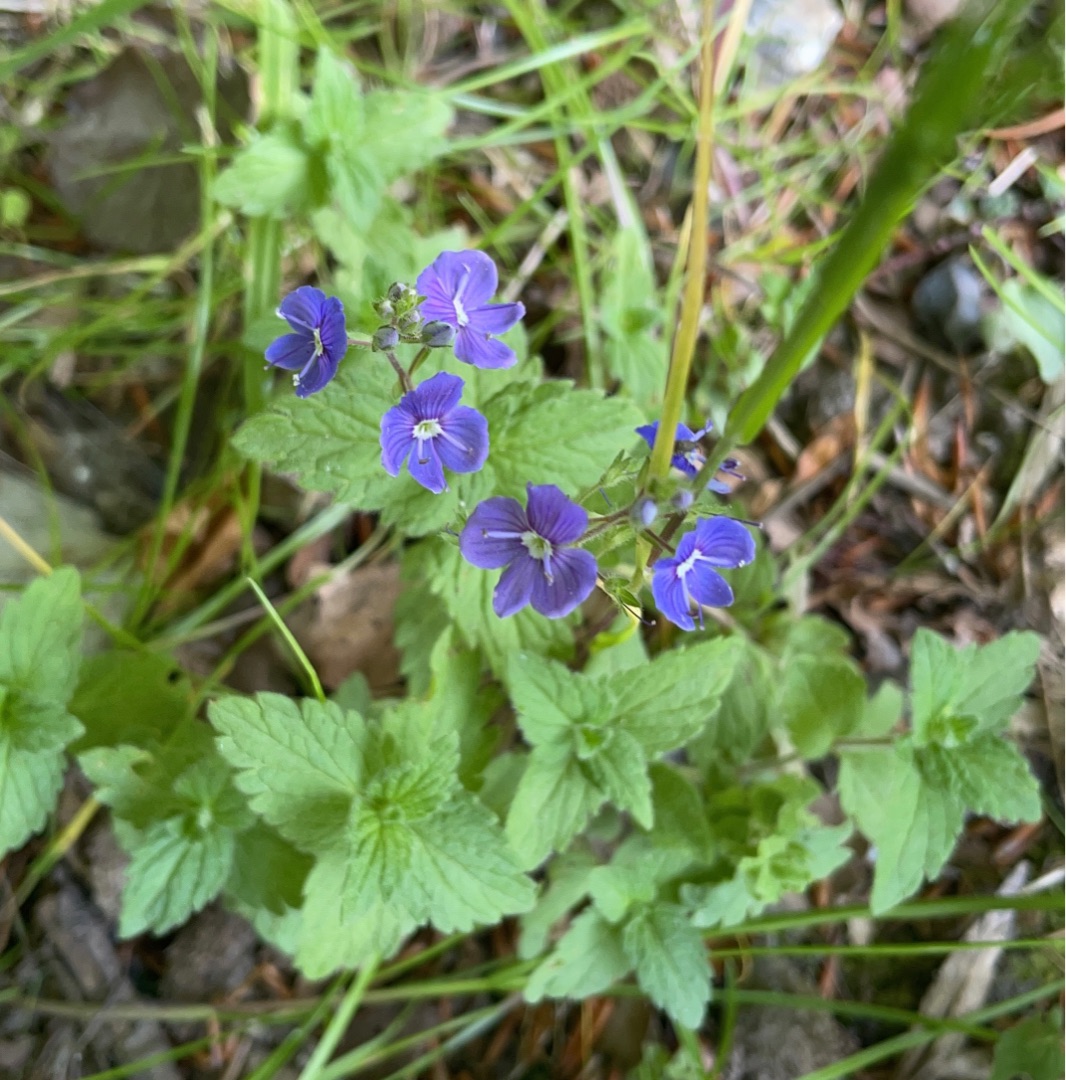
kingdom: Plantae
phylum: Tracheophyta
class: Magnoliopsida
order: Lamiales
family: Plantaginaceae
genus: Veronica
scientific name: Veronica chamaedrys
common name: Tveskægget ærenpris
